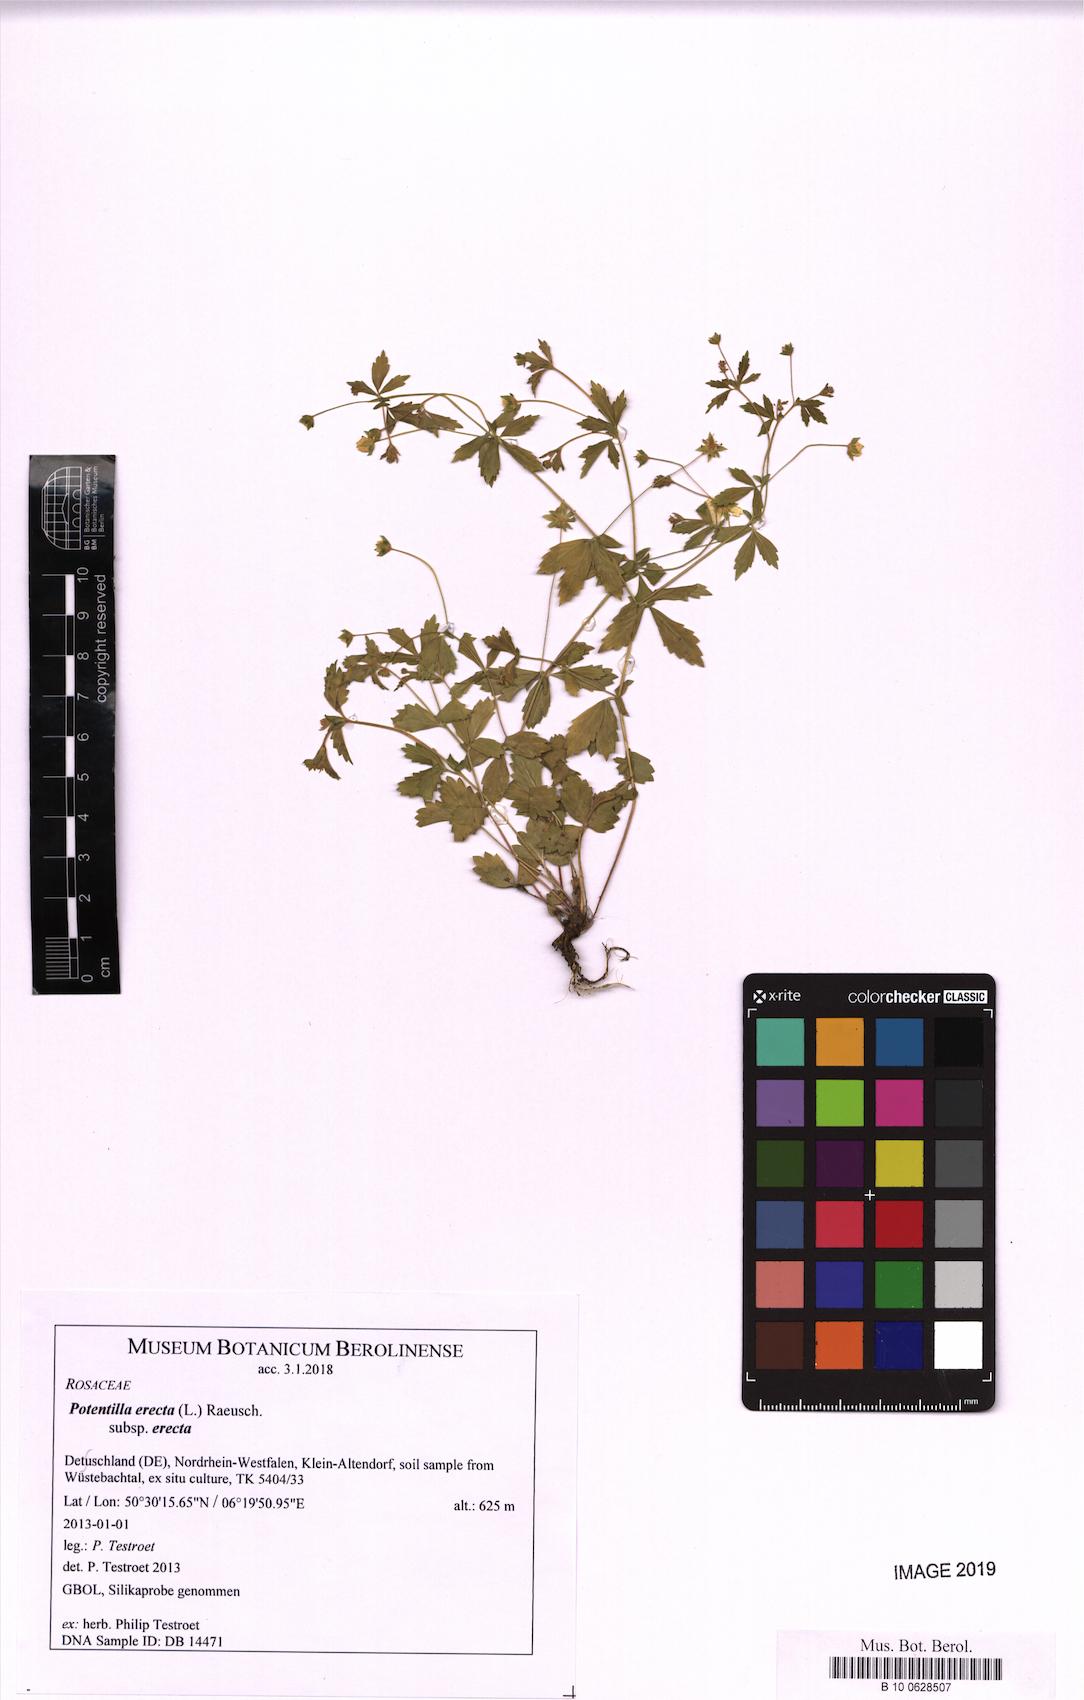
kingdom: Plantae
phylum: Tracheophyta
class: Magnoliopsida
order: Rosales
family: Rosaceae
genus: Potentilla
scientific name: Potentilla erecta
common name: Tormentil
